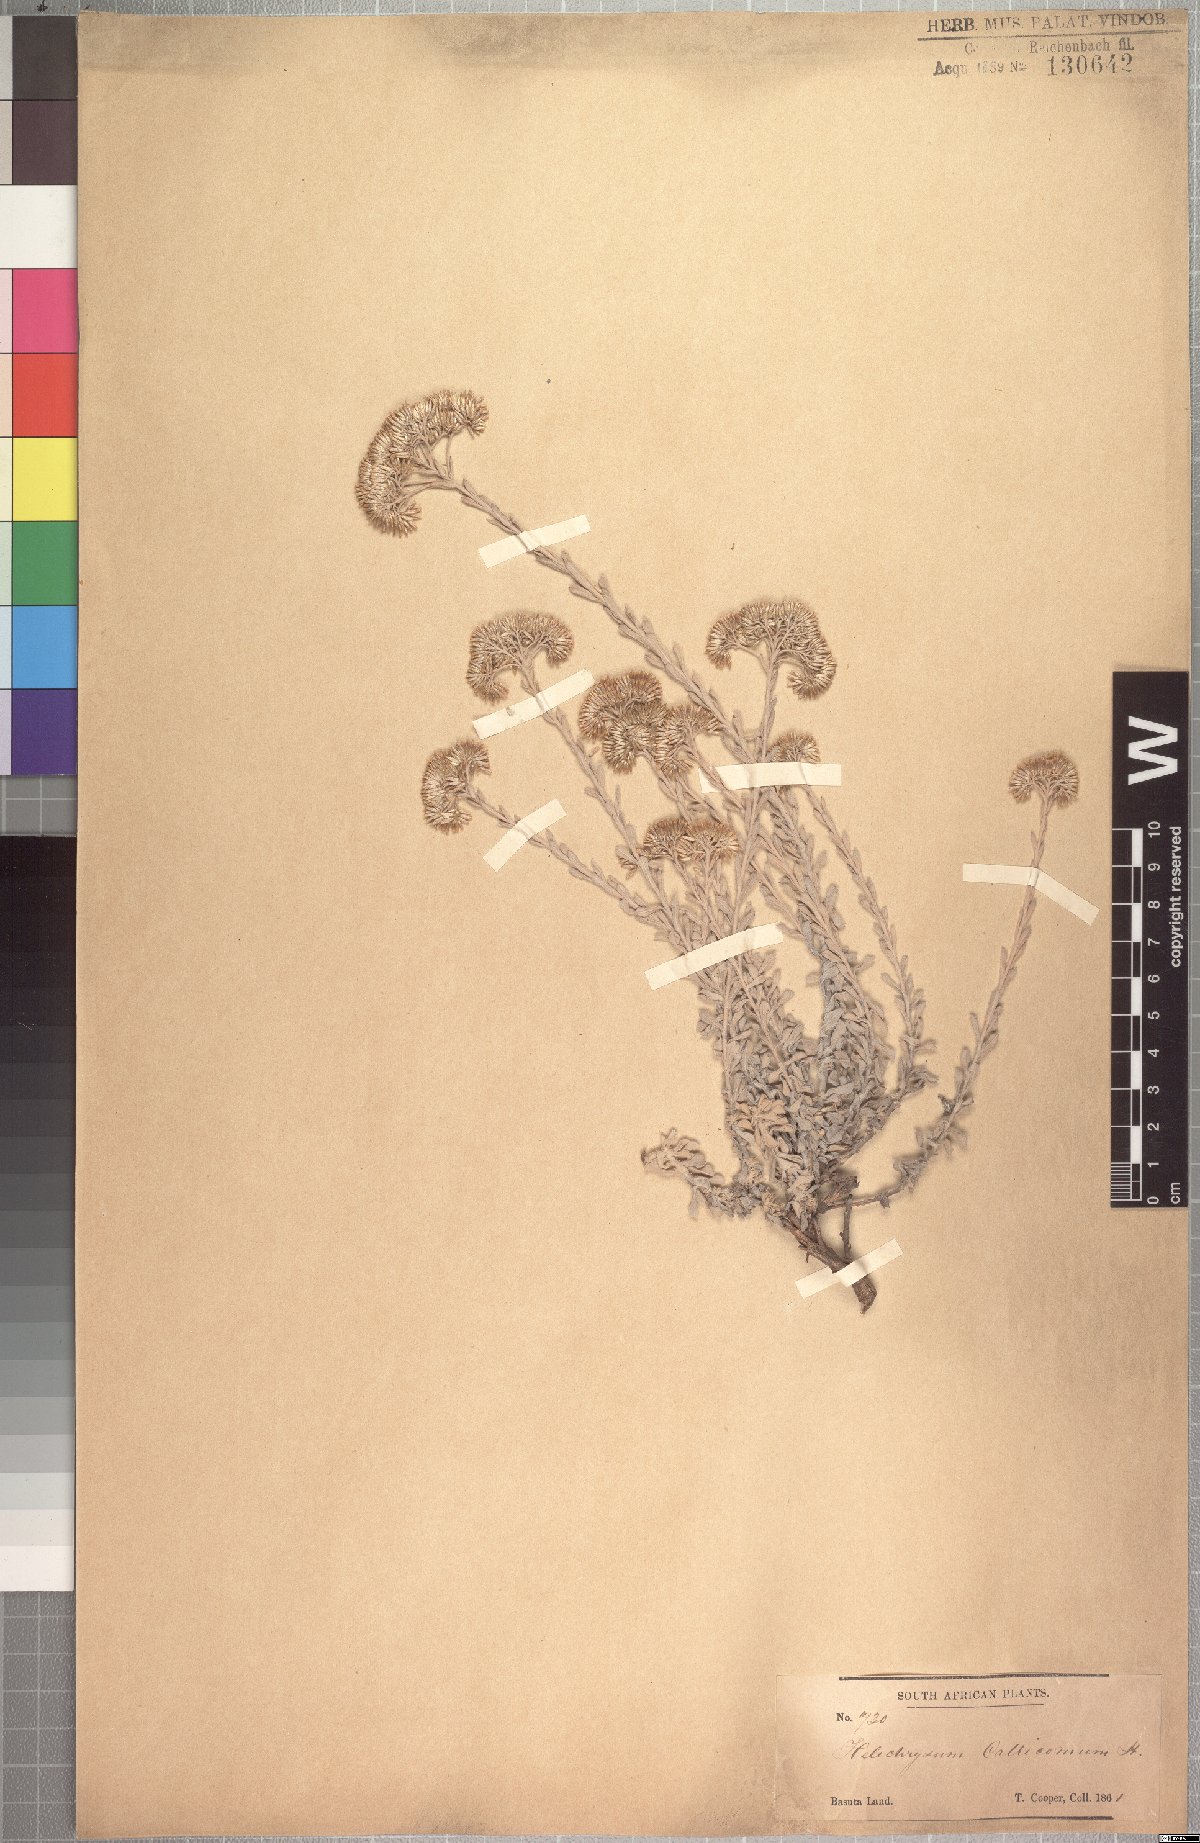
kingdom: Plantae
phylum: Tracheophyta
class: Magnoliopsida
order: Asterales
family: Asteraceae
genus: Helichrysum
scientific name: Helichrysum callicomum
